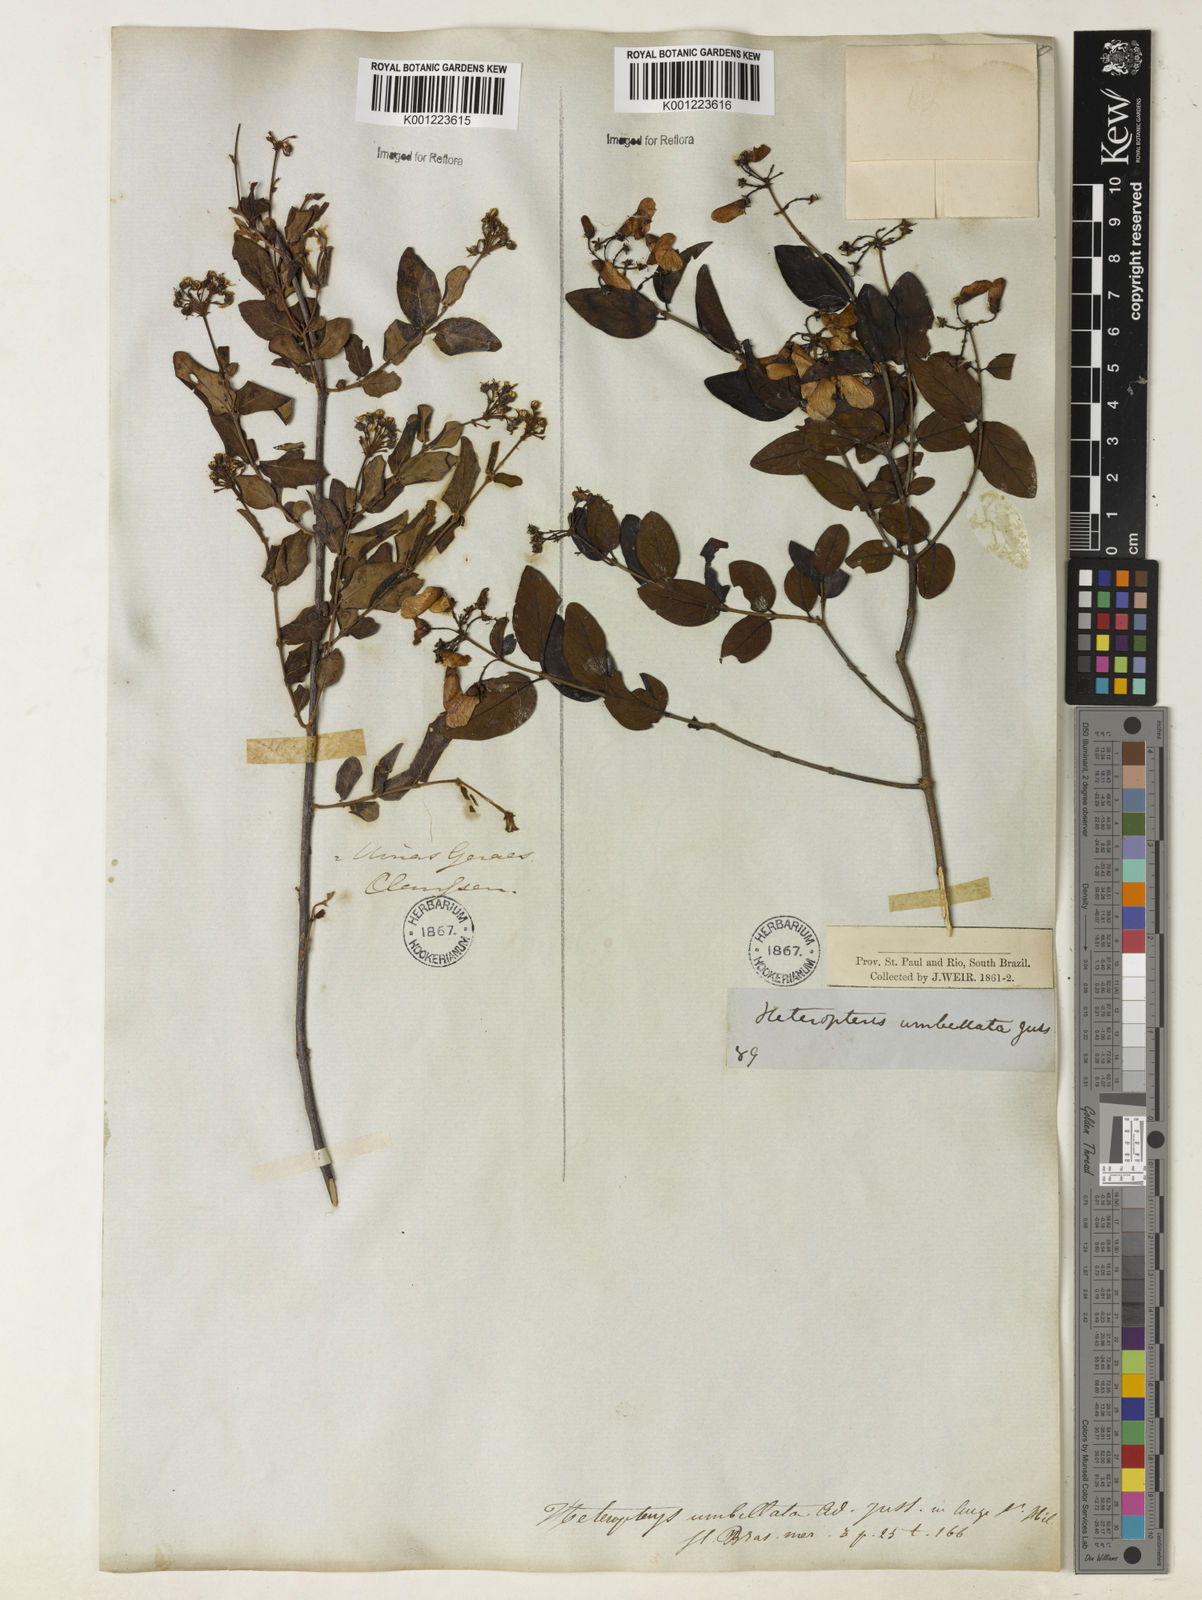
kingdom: Plantae
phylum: Tracheophyta
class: Magnoliopsida
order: Malpighiales
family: Malpighiaceae
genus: Heteropterys
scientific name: Heteropterys umbellata
